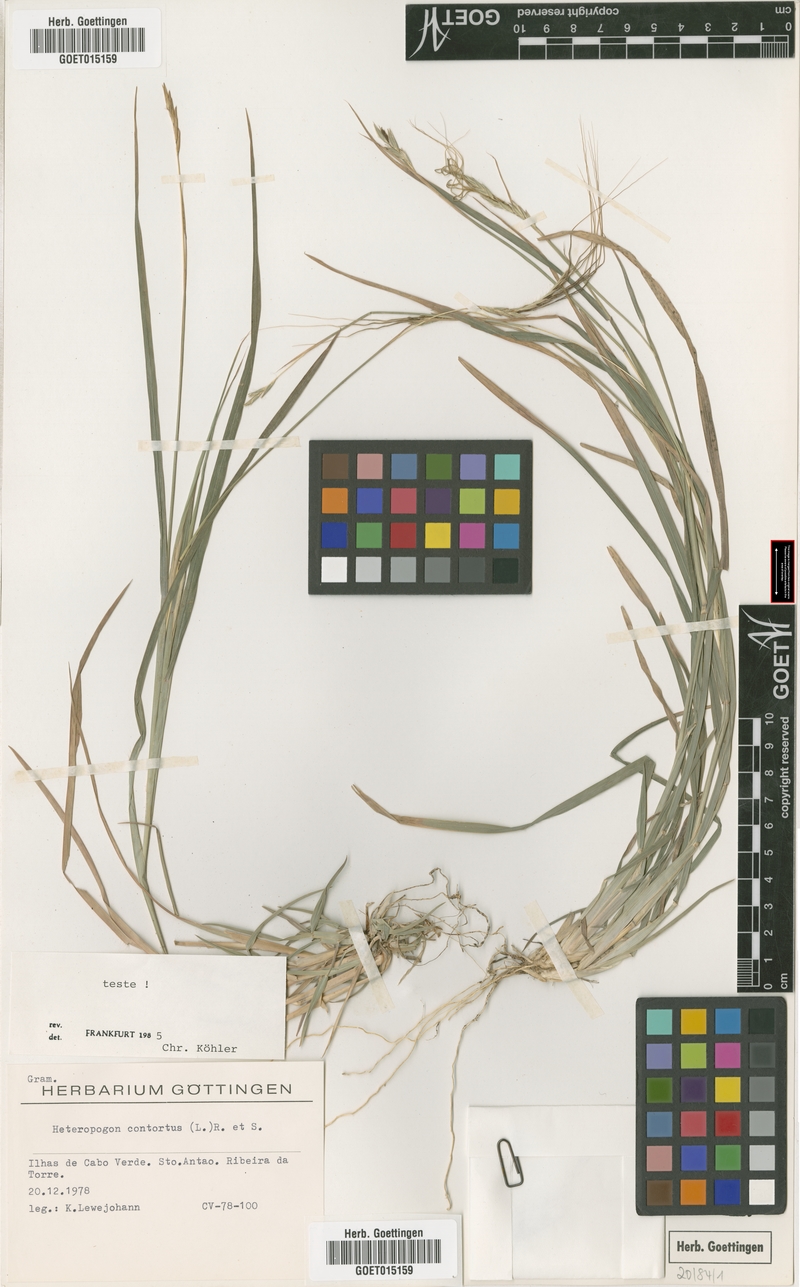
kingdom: Plantae
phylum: Tracheophyta
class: Liliopsida
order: Poales
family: Poaceae
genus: Heteropogon
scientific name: Heteropogon contortus
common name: Tanglehead
